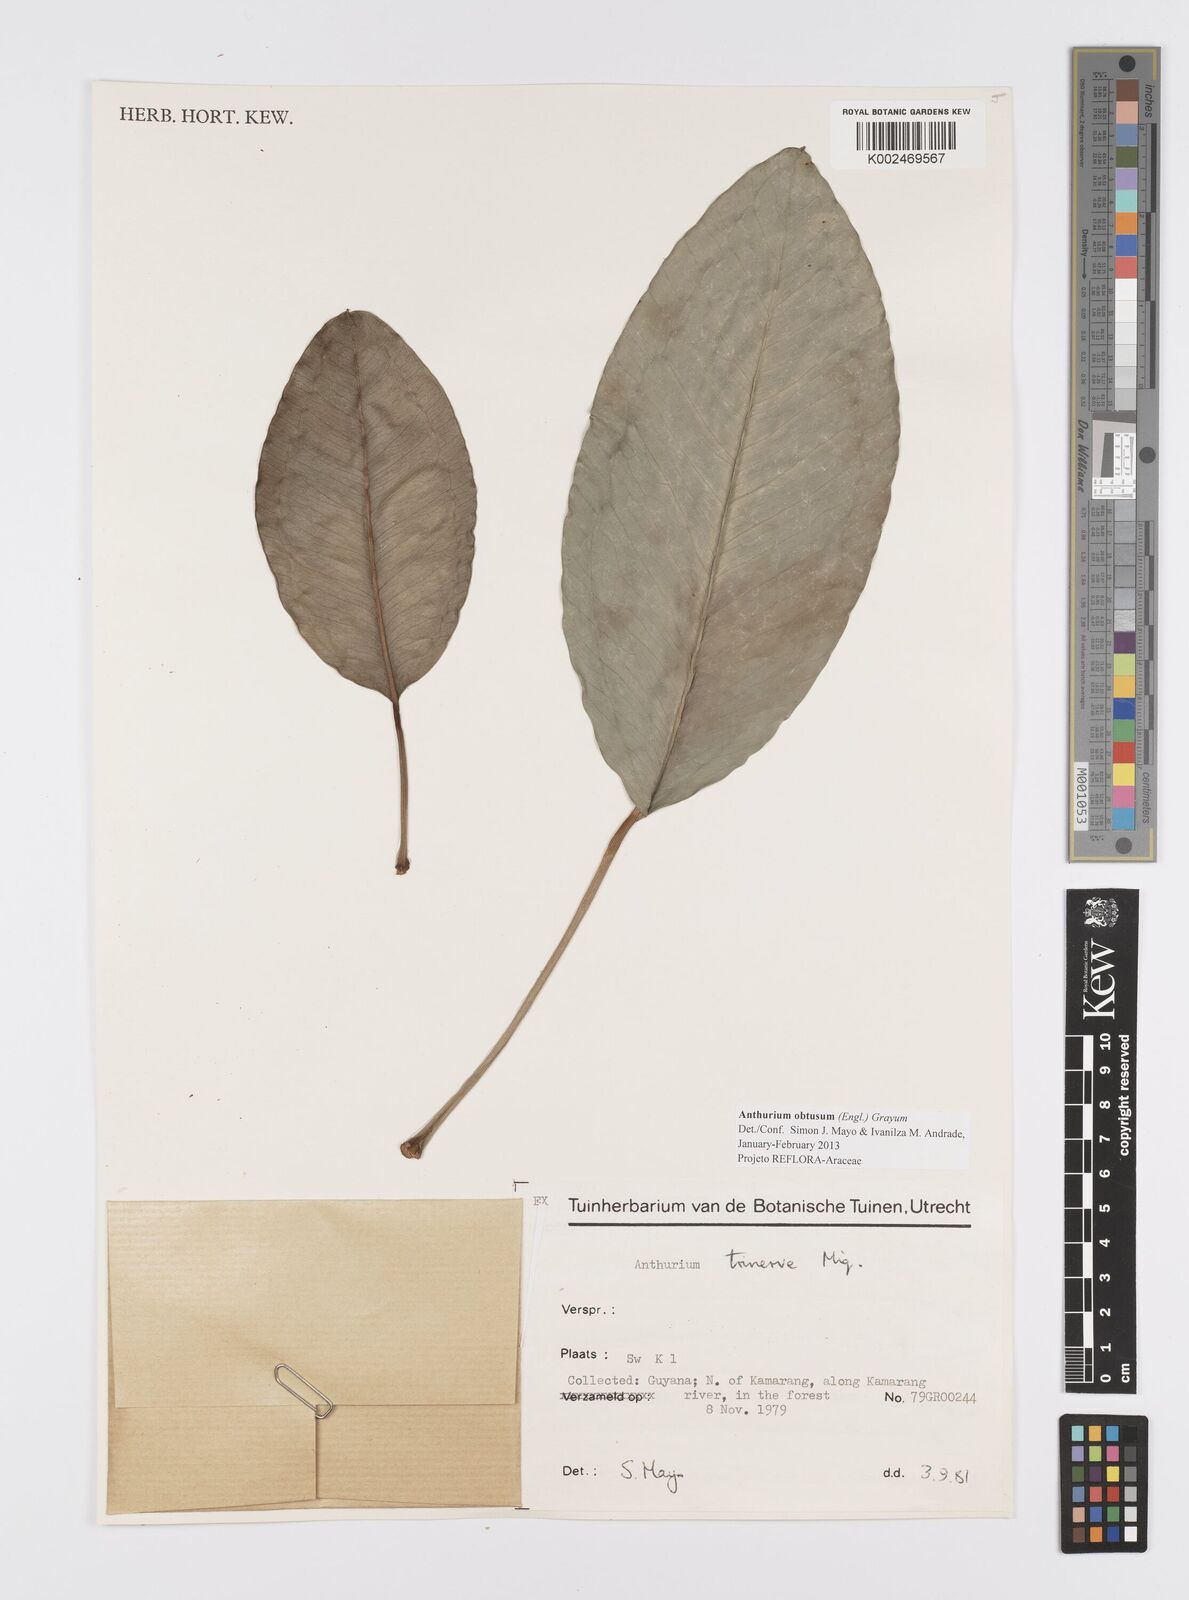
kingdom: Plantae
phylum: Tracheophyta
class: Liliopsida
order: Alismatales
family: Araceae
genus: Anthurium
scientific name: Anthurium obtusum
